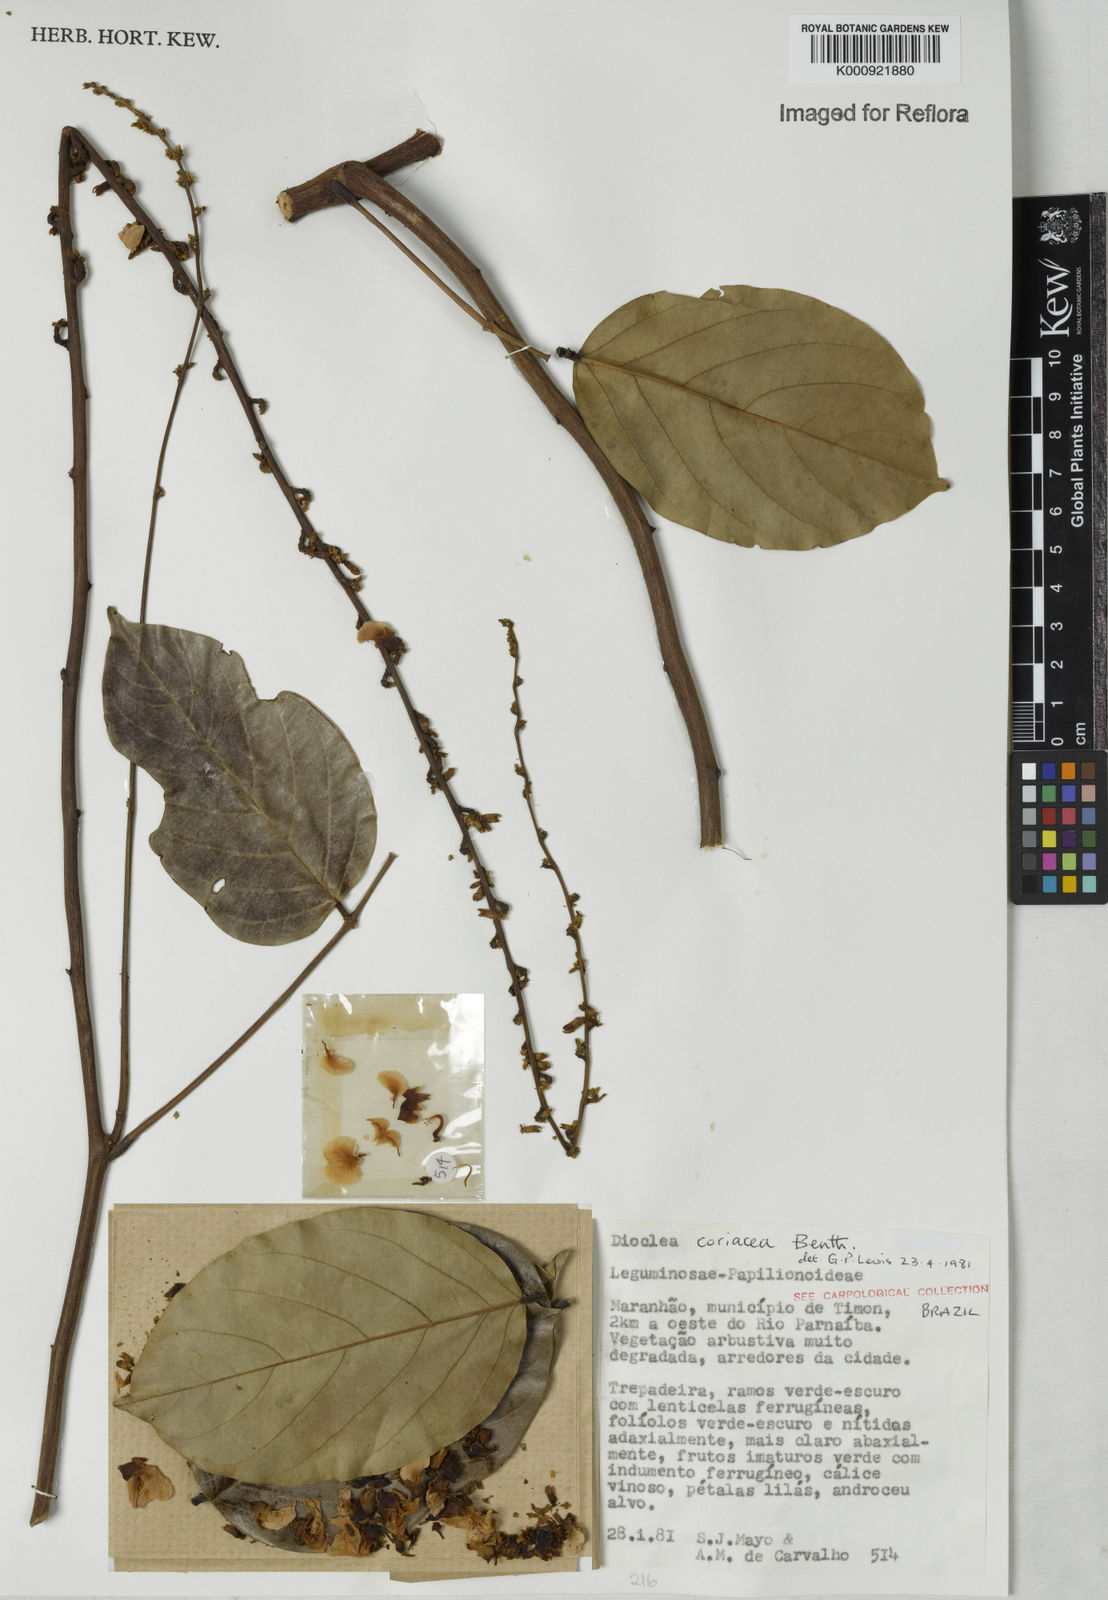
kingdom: Plantae
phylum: Tracheophyta
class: Magnoliopsida
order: Fabales
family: Fabaceae
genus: Macropsychanthus
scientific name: Macropsychanthus coriaceus
